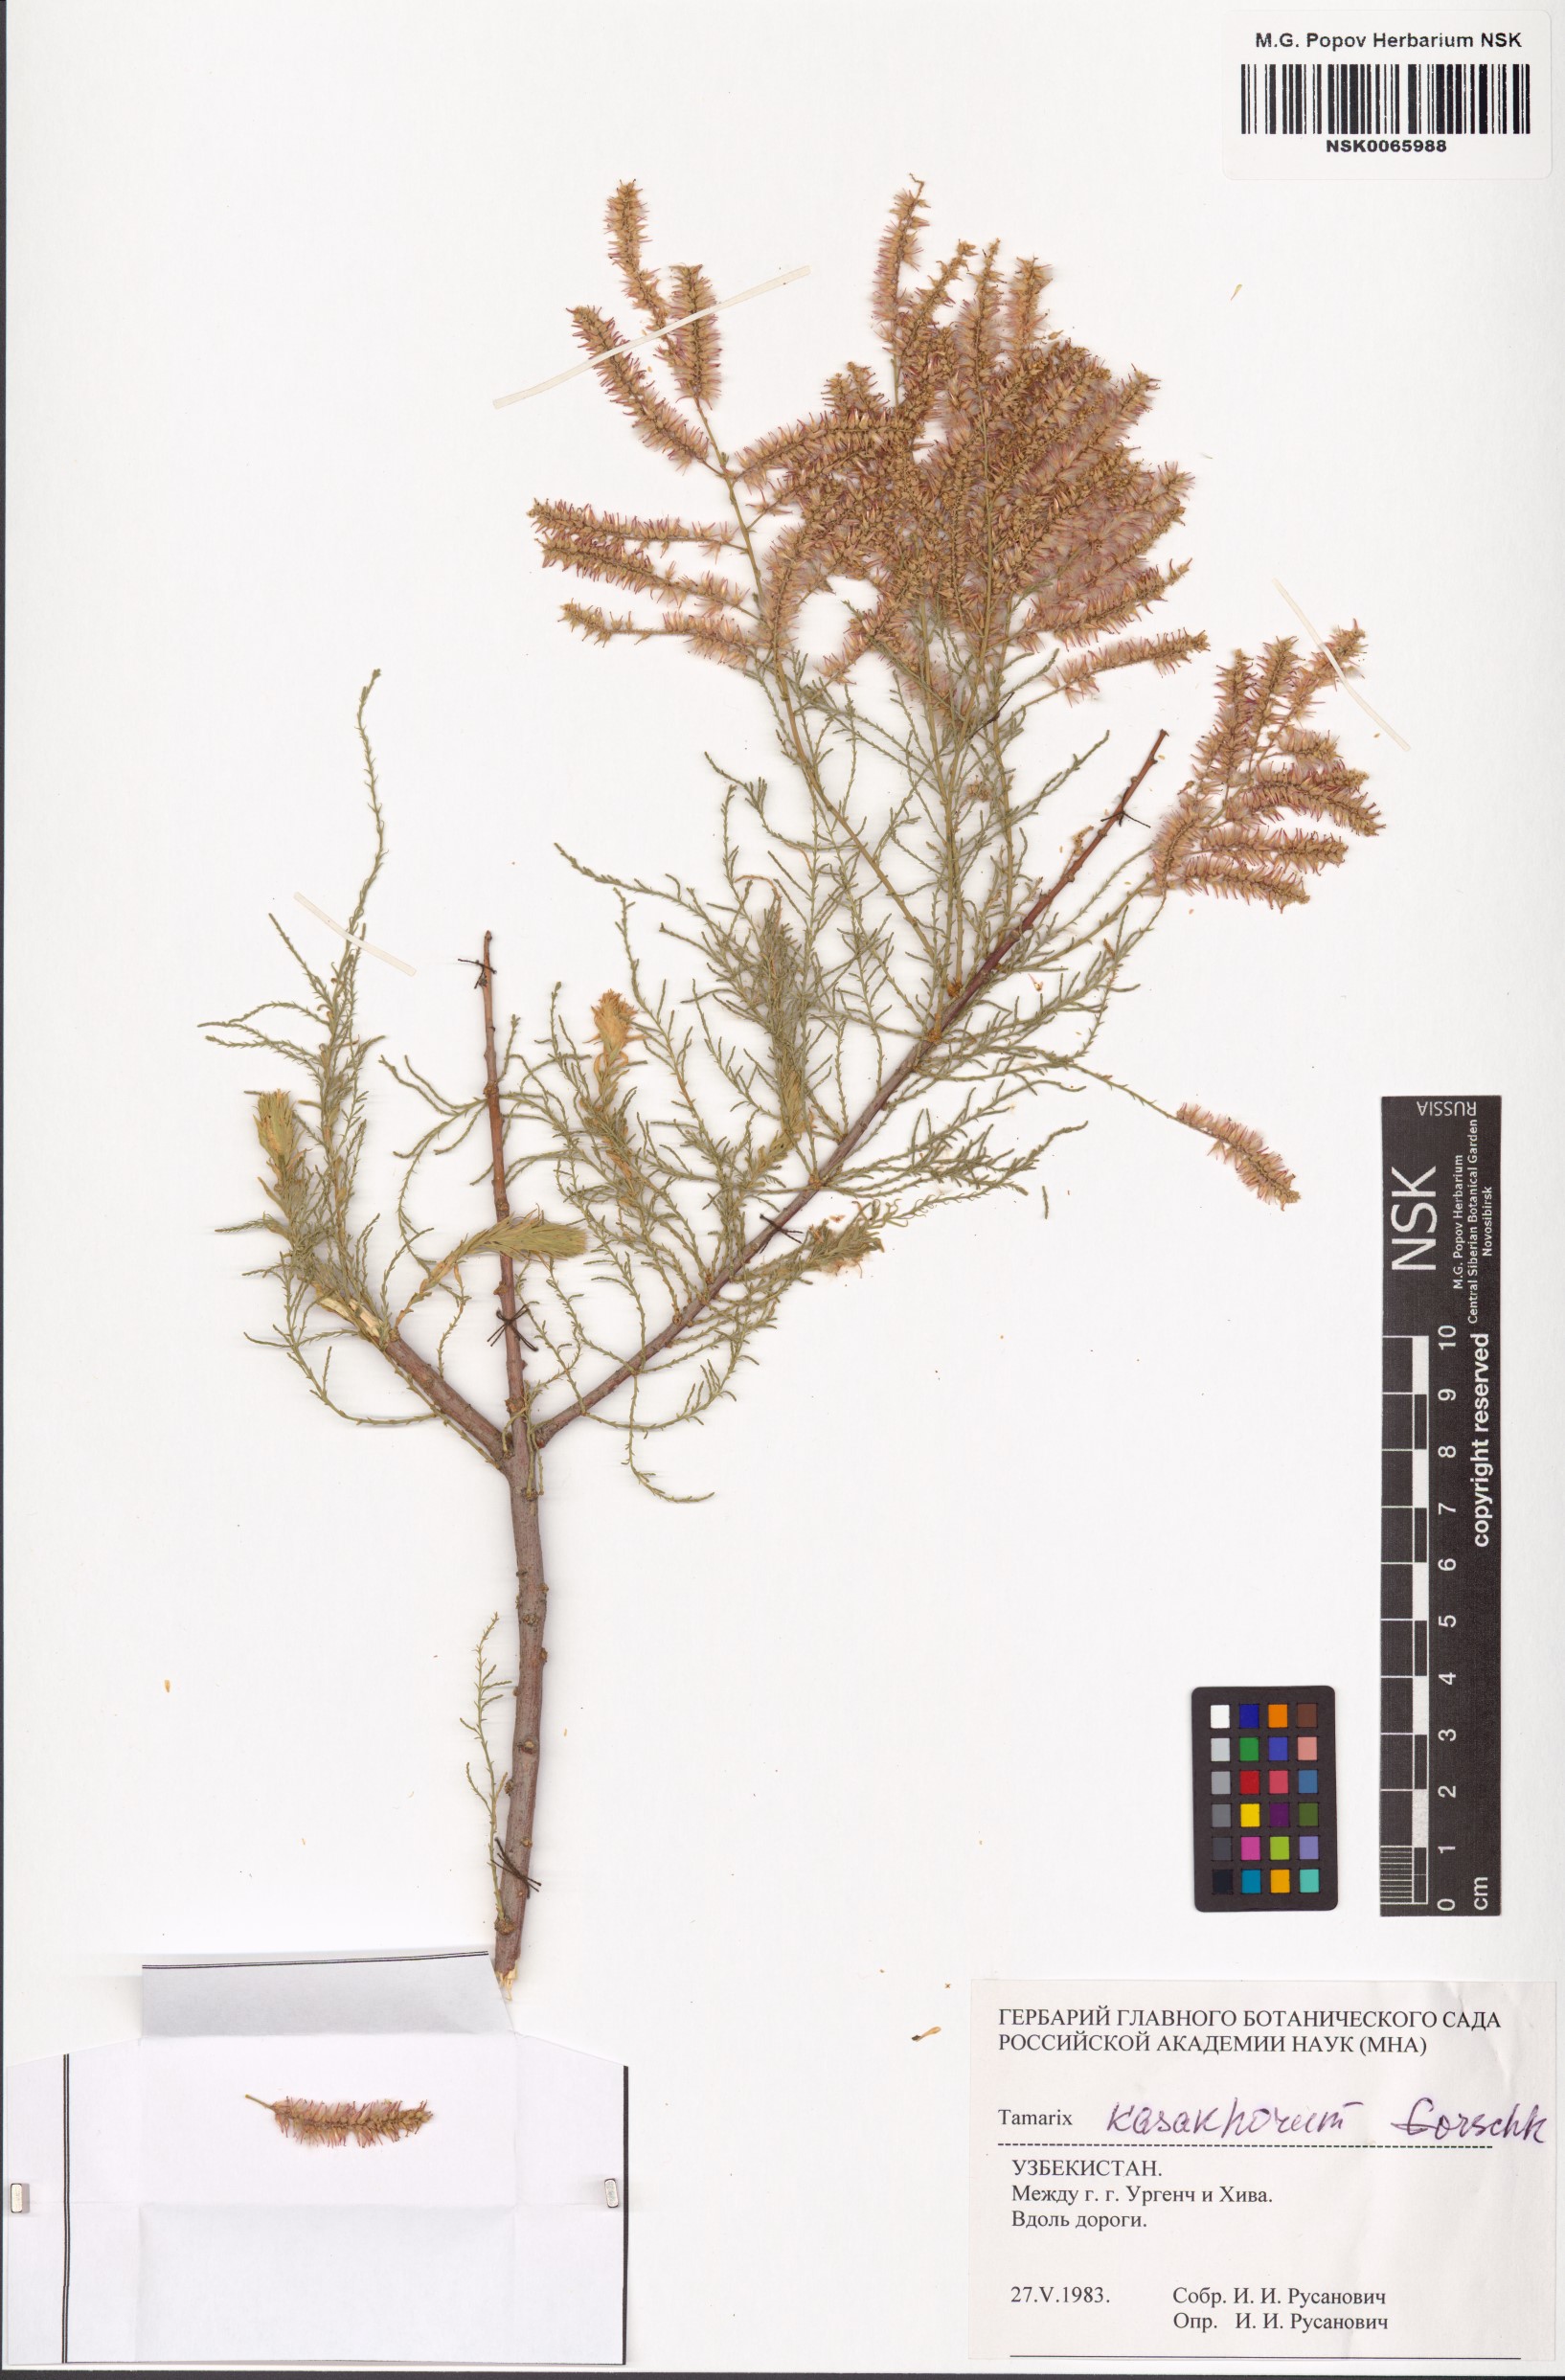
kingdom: Plantae
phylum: Tracheophyta
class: Magnoliopsida
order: Caryophyllales
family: Tamaricaceae
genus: Tamarix
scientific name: Tamarix kasahorum
